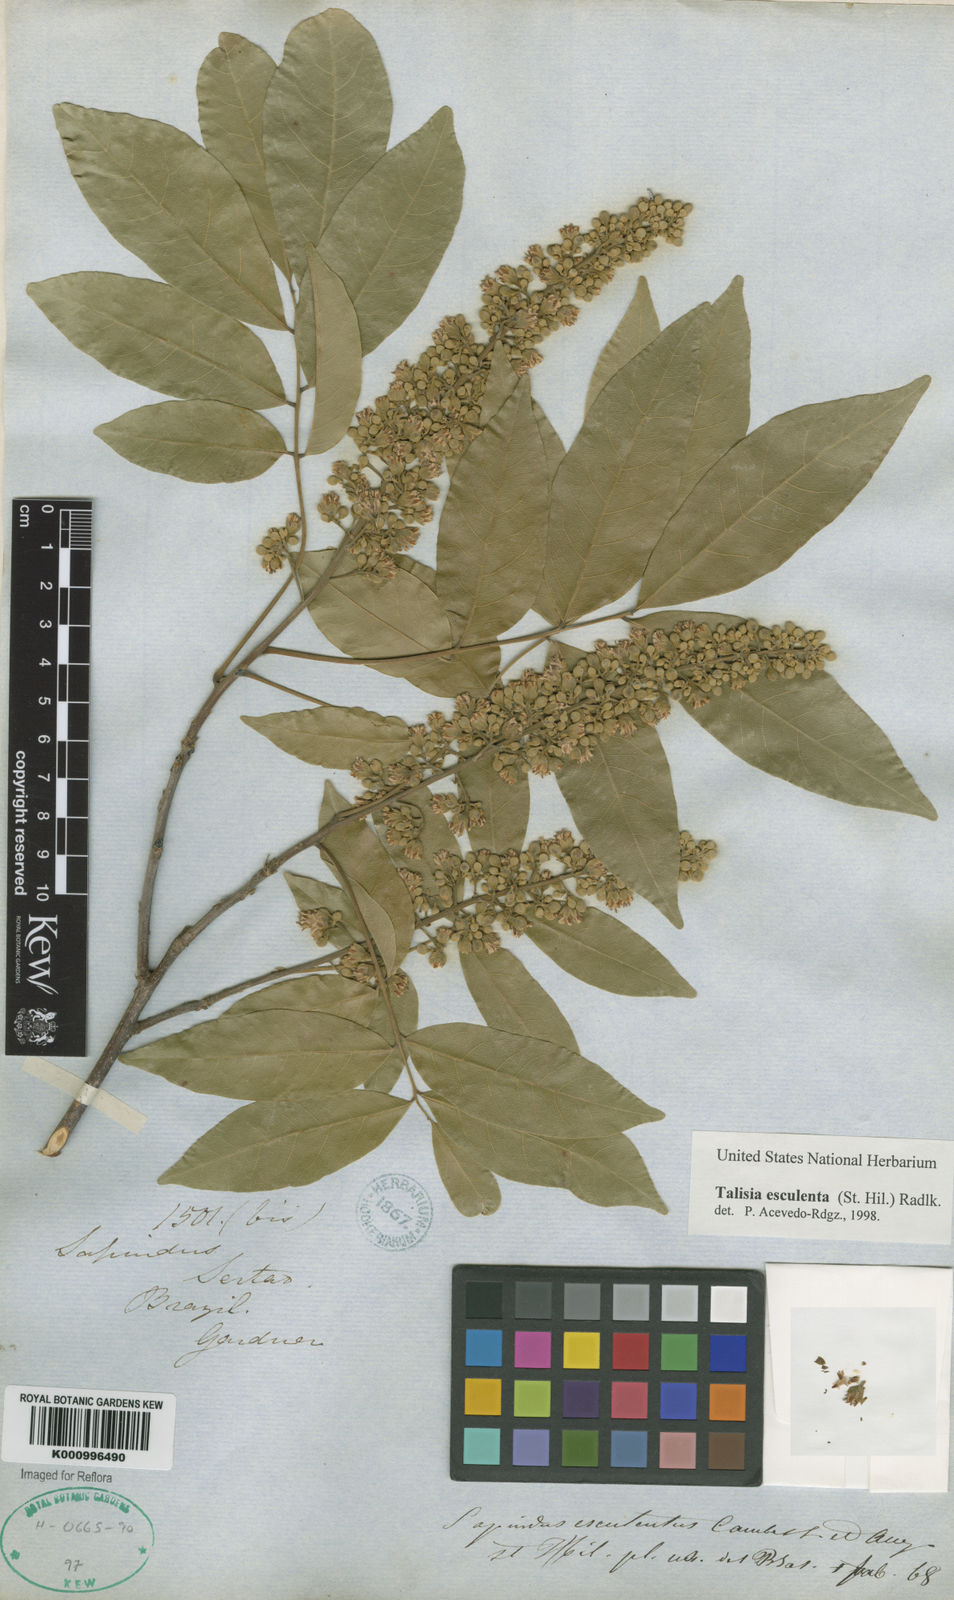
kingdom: Plantae
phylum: Tracheophyta
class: Magnoliopsida
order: Sapindales
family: Sapindaceae
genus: Talisia
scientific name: Talisia
